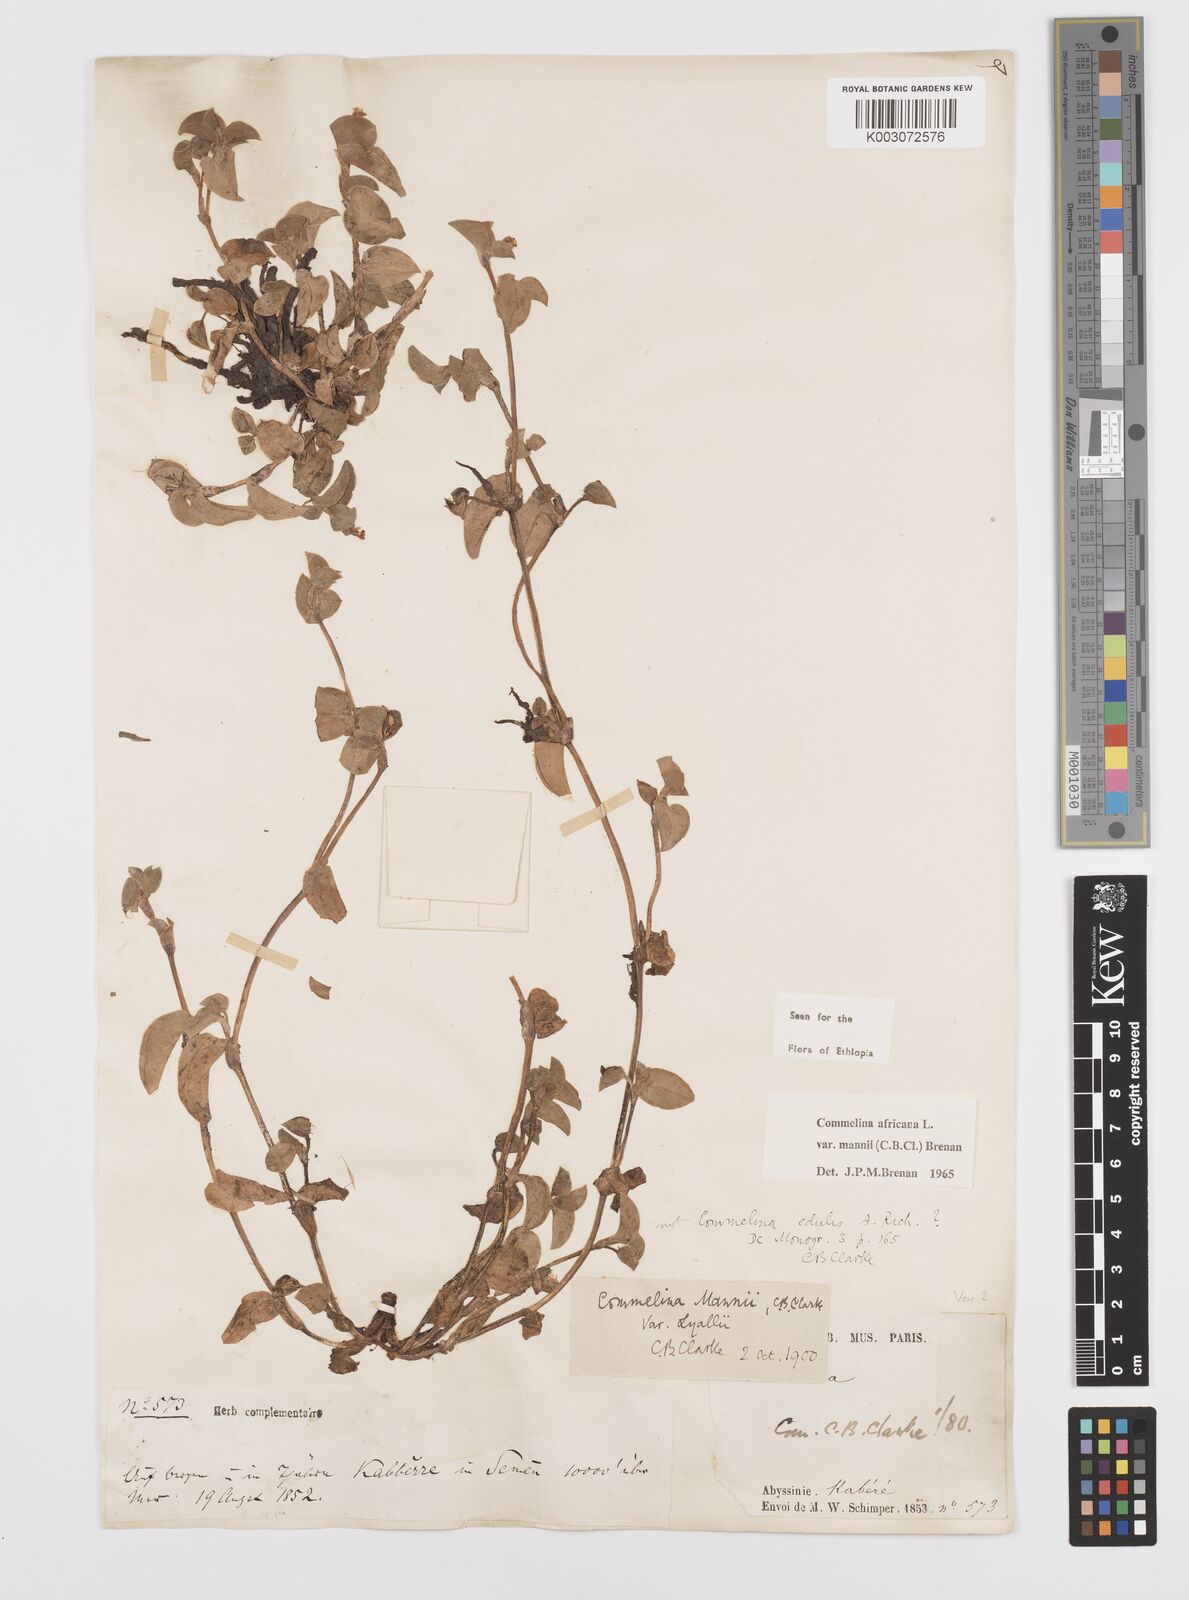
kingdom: Plantae
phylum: Tracheophyta
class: Liliopsida
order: Commelinales
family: Commelinaceae
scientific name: Commelinaceae
